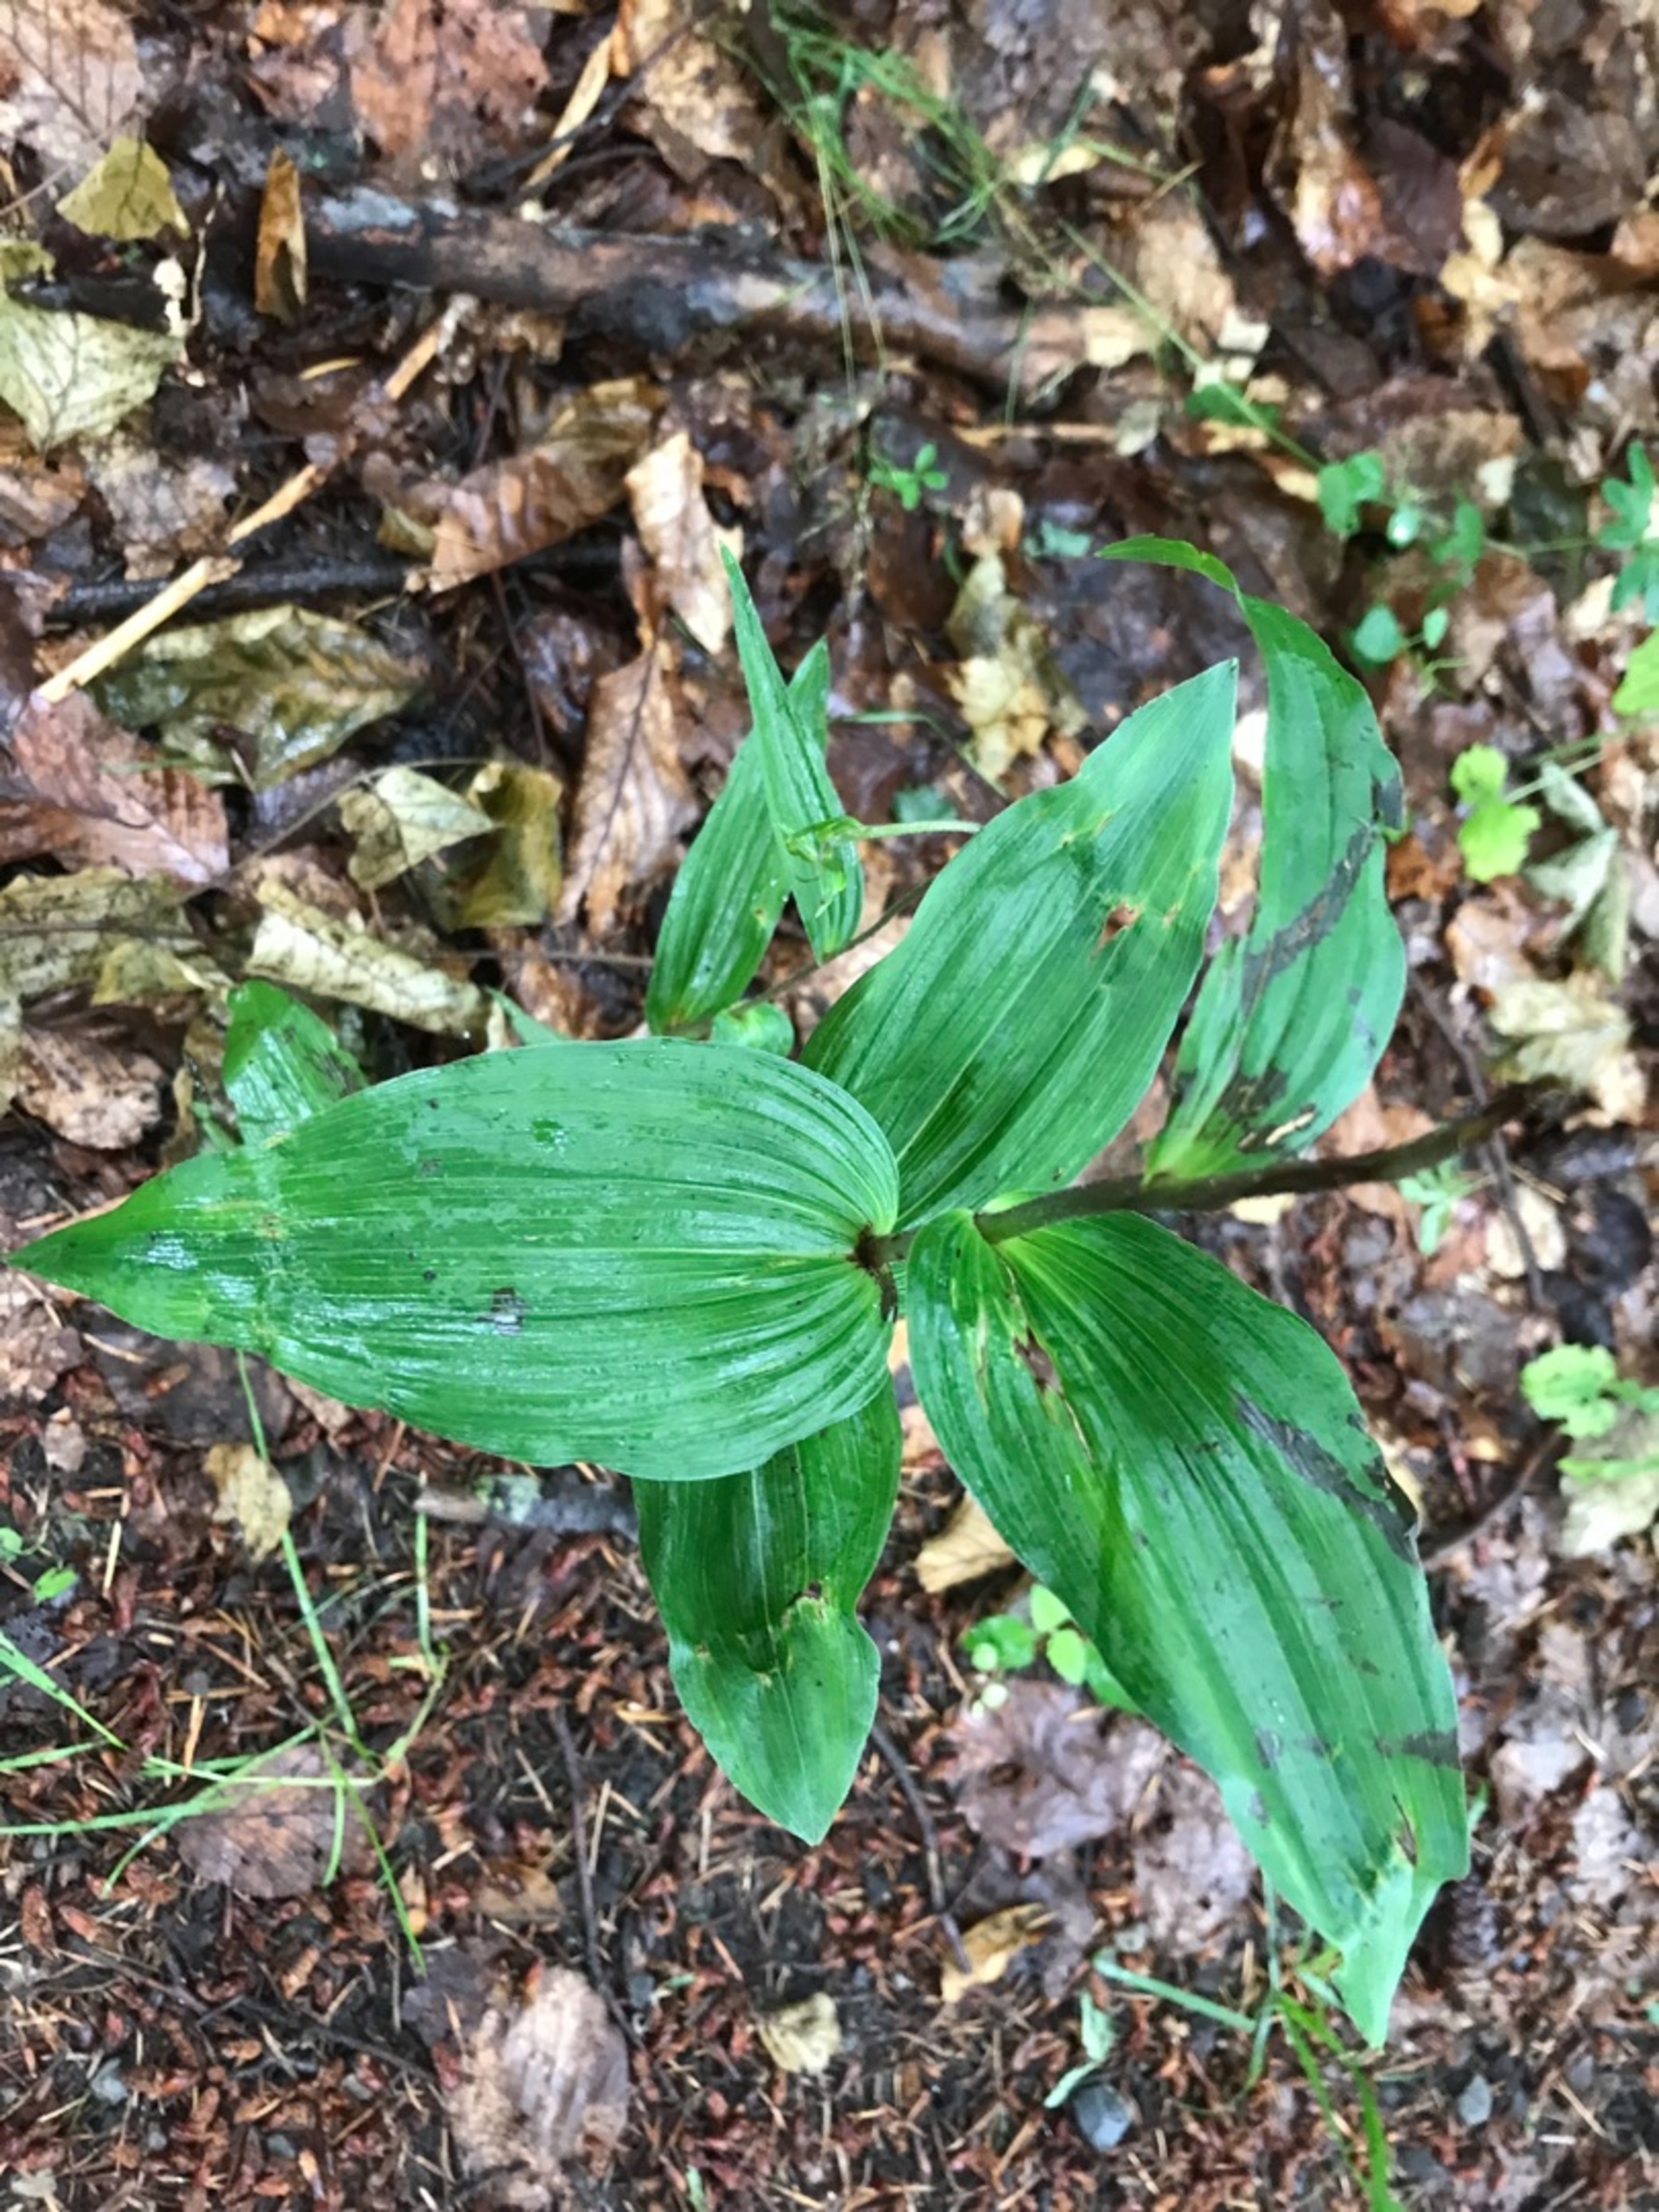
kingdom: Plantae
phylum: Tracheophyta
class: Liliopsida
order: Asparagales
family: Orchidaceae
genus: Epipactis
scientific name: Epipactis helleborine
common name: Skov-hullæbe
